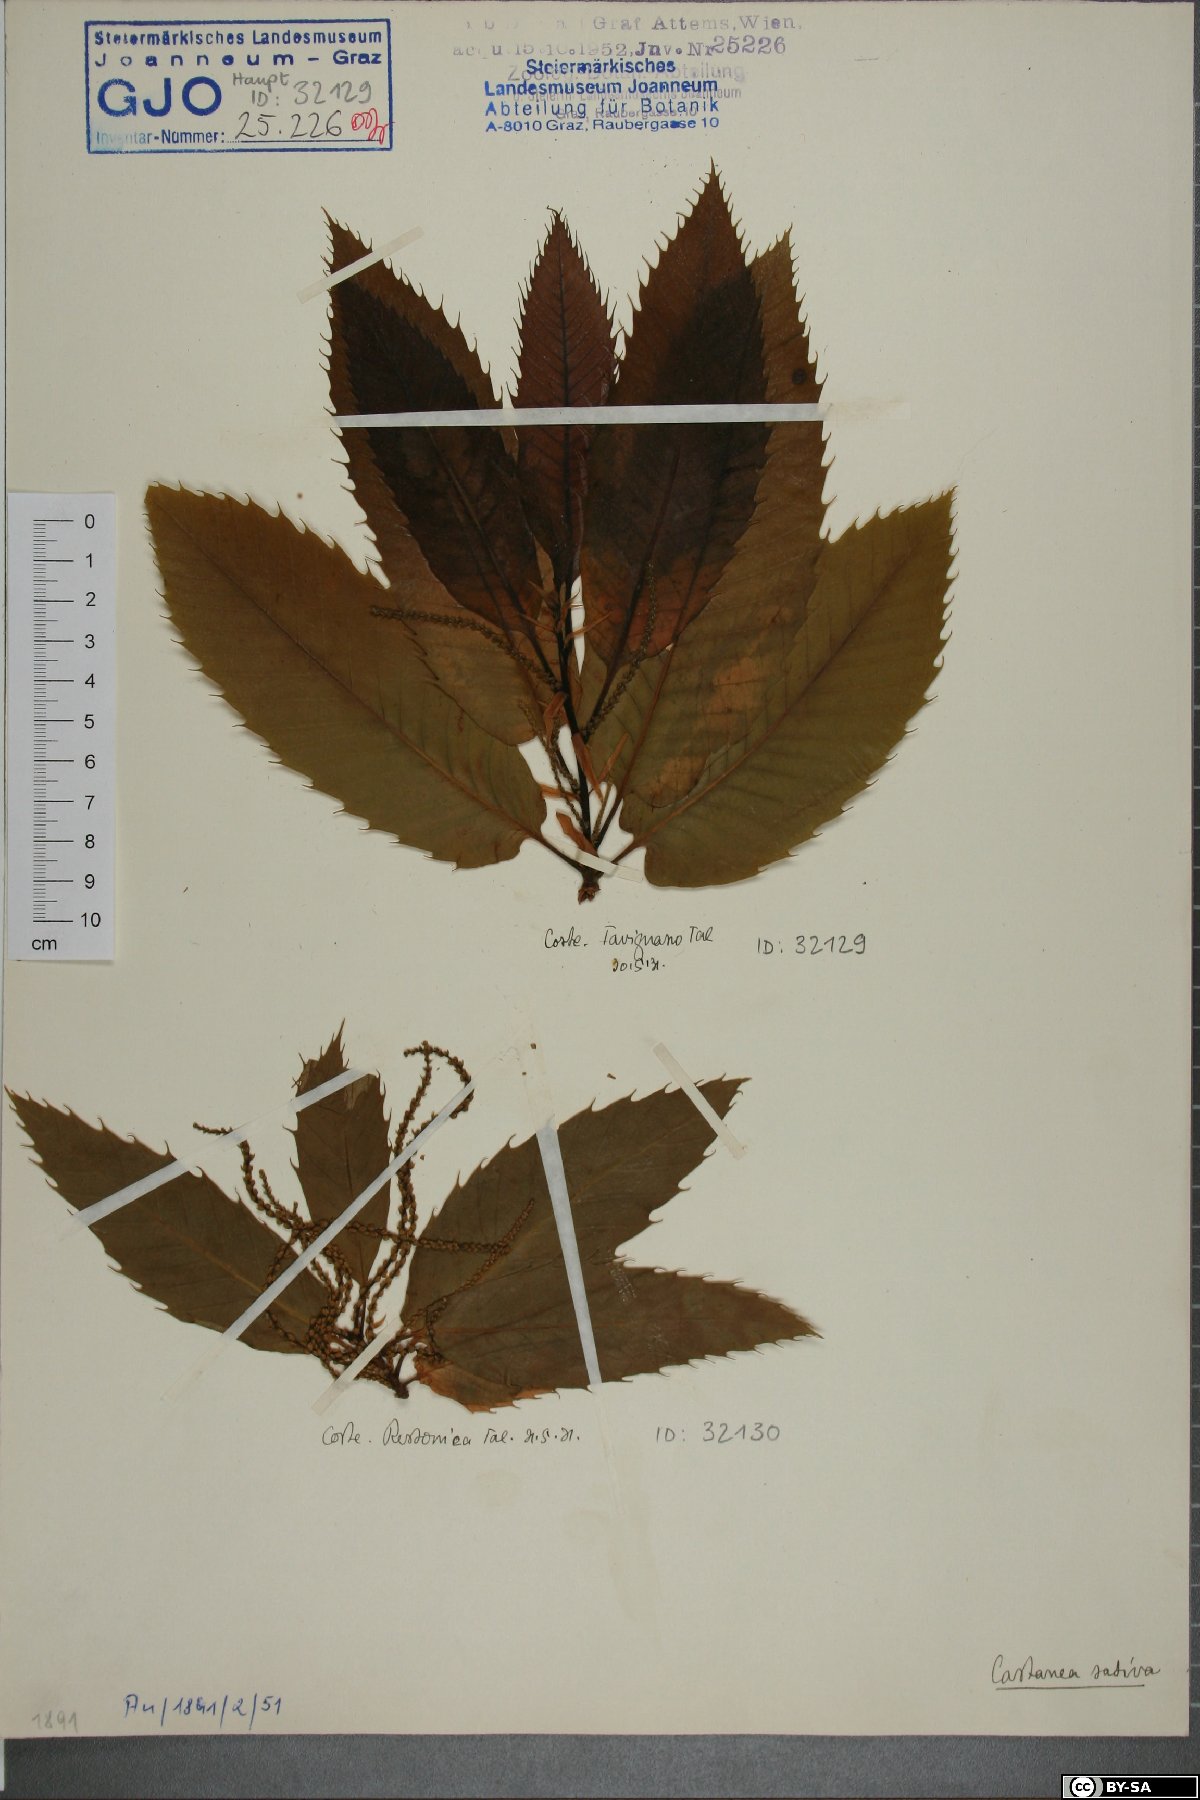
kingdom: Plantae
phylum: Tracheophyta
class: Magnoliopsida
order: Fagales
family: Fagaceae
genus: Castanea
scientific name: Castanea sativa
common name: Sweet chestnut
